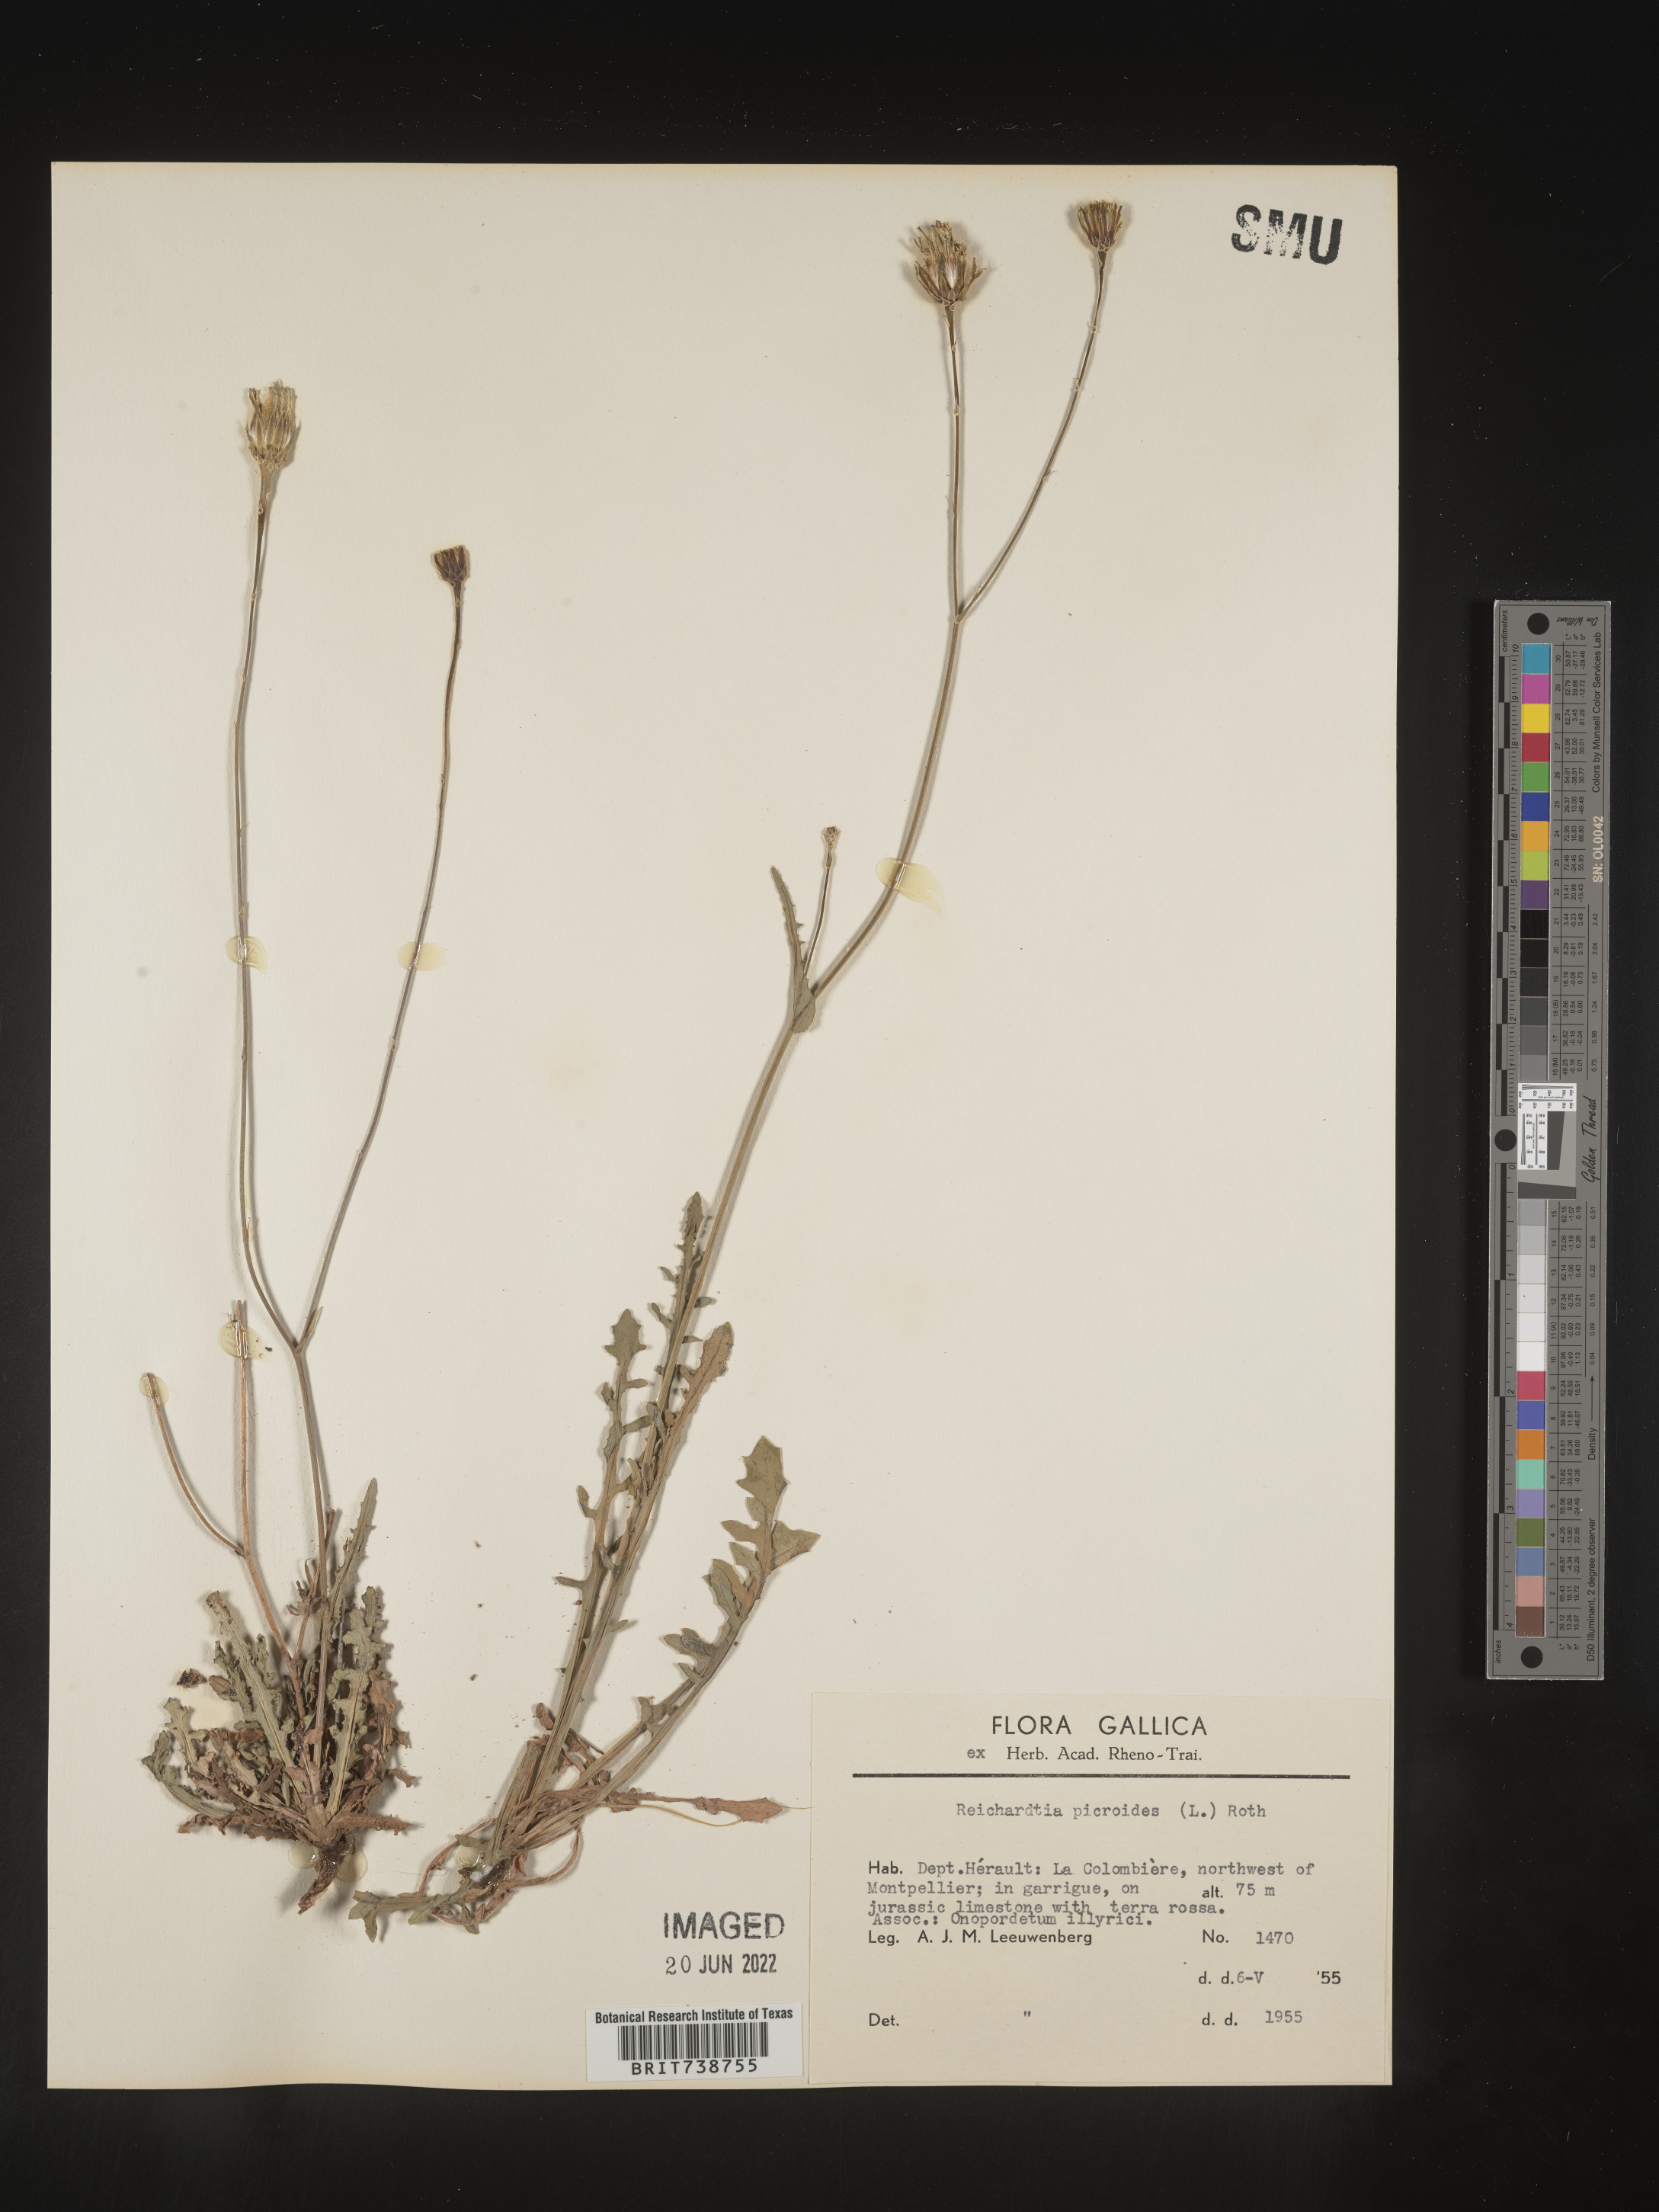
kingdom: Plantae
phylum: Tracheophyta
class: Magnoliopsida
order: Asterales
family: Asteraceae
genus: Reichardia
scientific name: Reichardia
